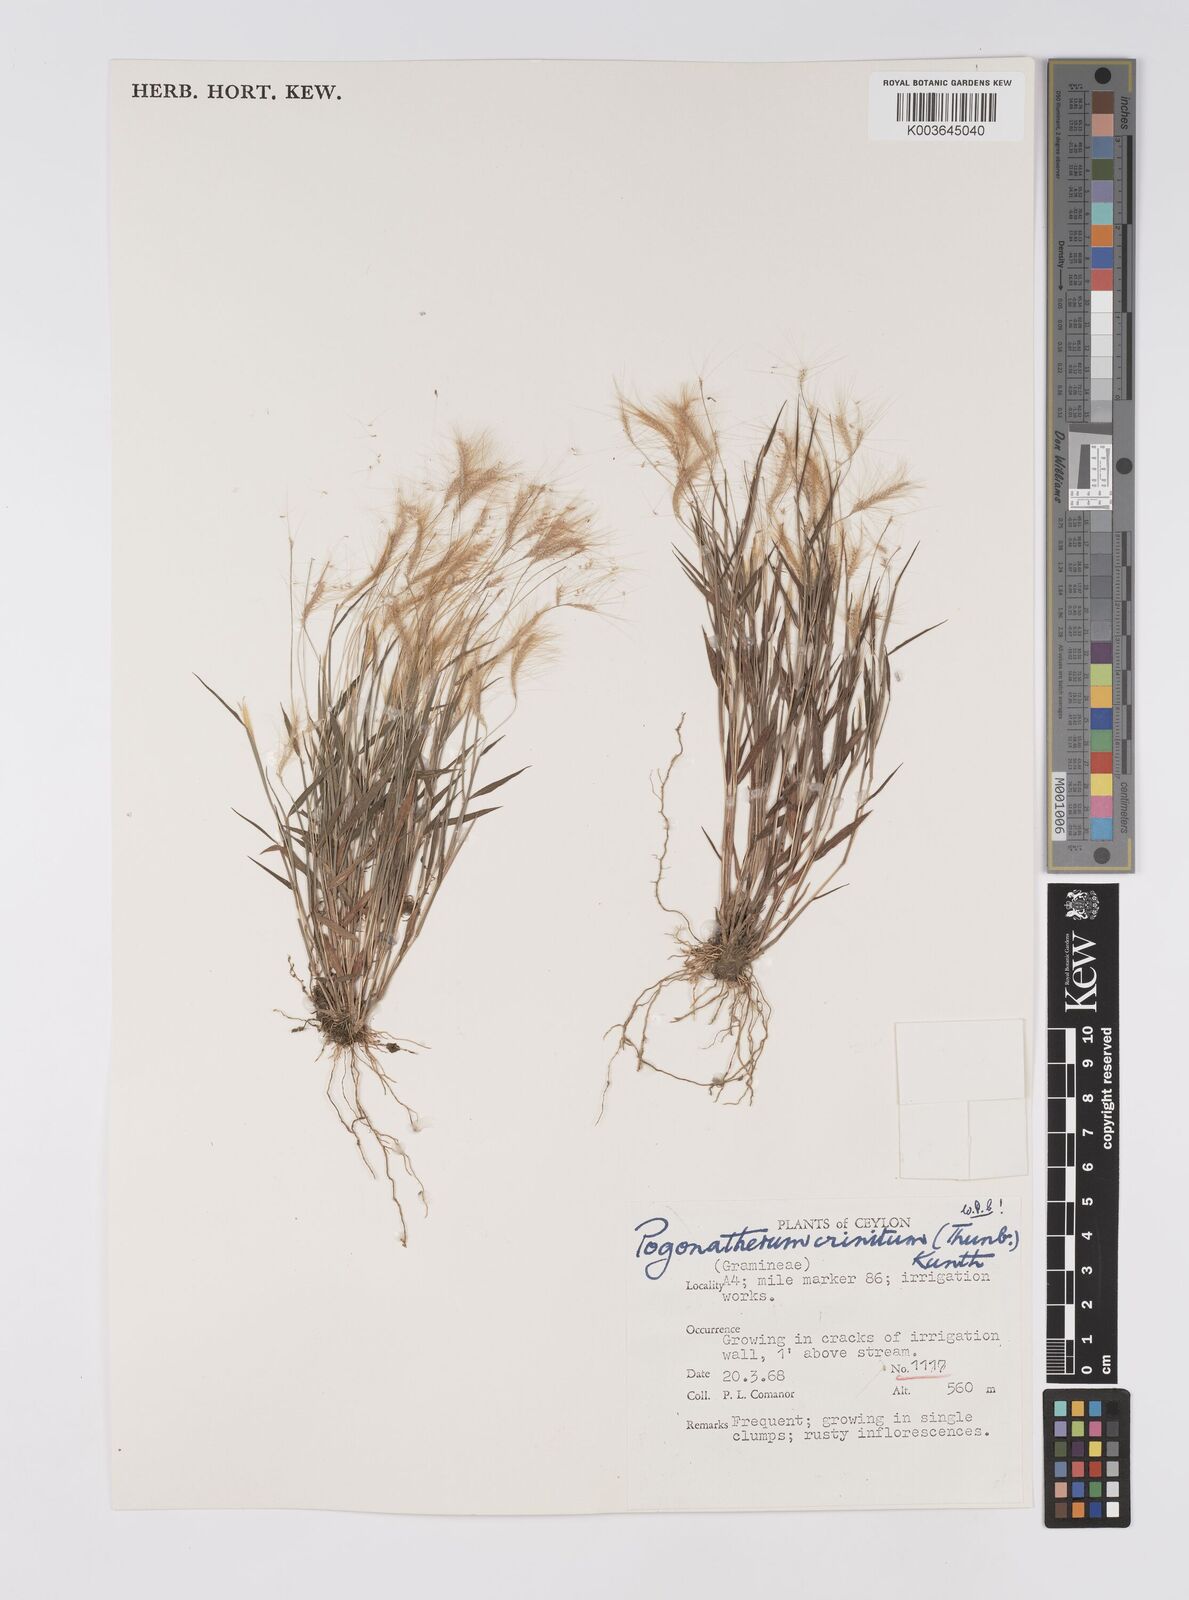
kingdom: Plantae
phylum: Tracheophyta
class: Liliopsida
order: Poales
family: Poaceae
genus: Pogonatherum
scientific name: Pogonatherum crinitum
